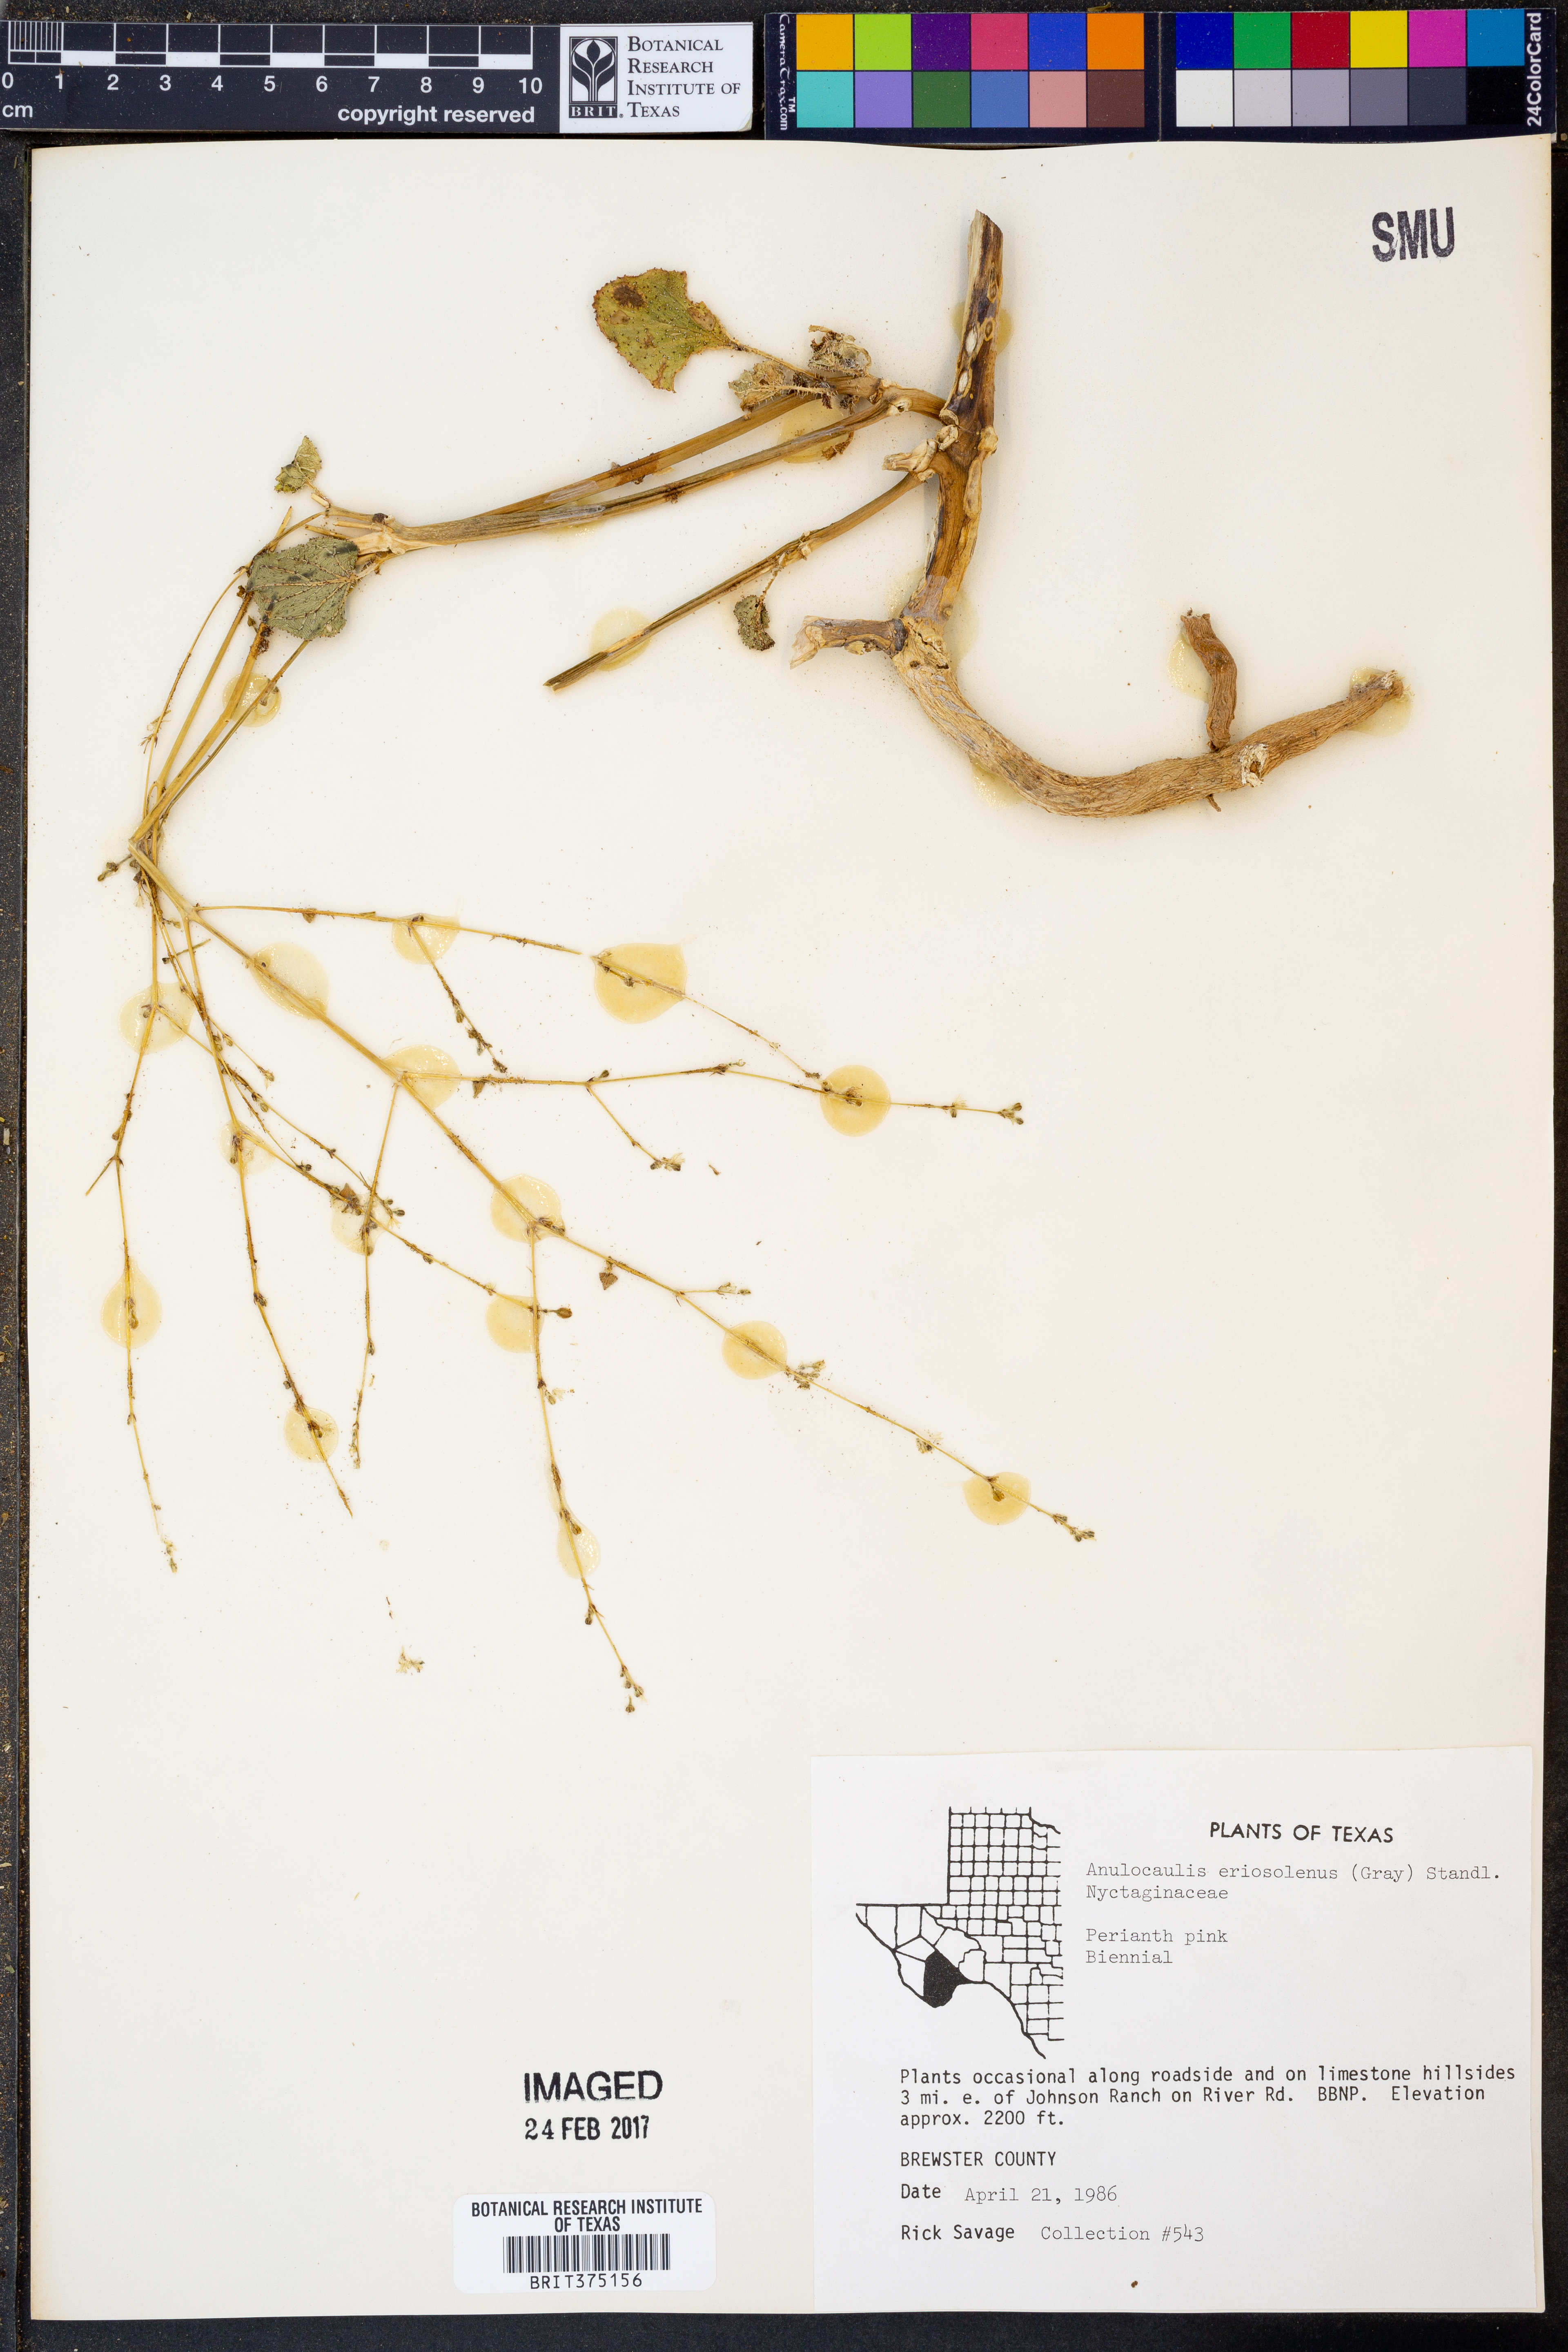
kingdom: Plantae
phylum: Tracheophyta
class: Magnoliopsida
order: Caryophyllales
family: Nyctaginaceae
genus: Anulocaulis
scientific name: Anulocaulis eriosolenus
